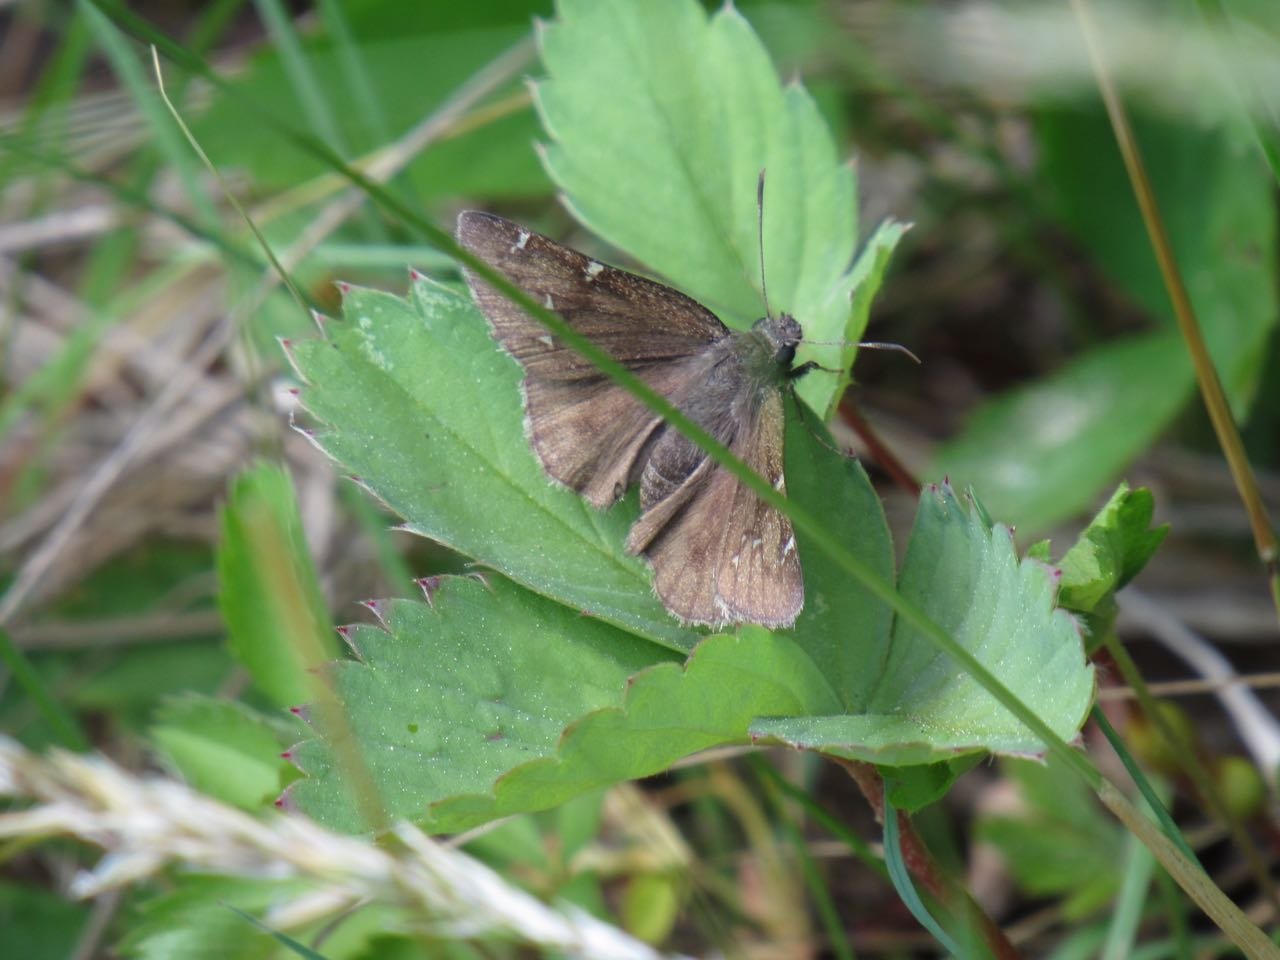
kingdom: Animalia
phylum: Arthropoda
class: Insecta
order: Lepidoptera
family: Hesperiidae
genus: Autochton
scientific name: Autochton
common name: Northern Cloudywing
